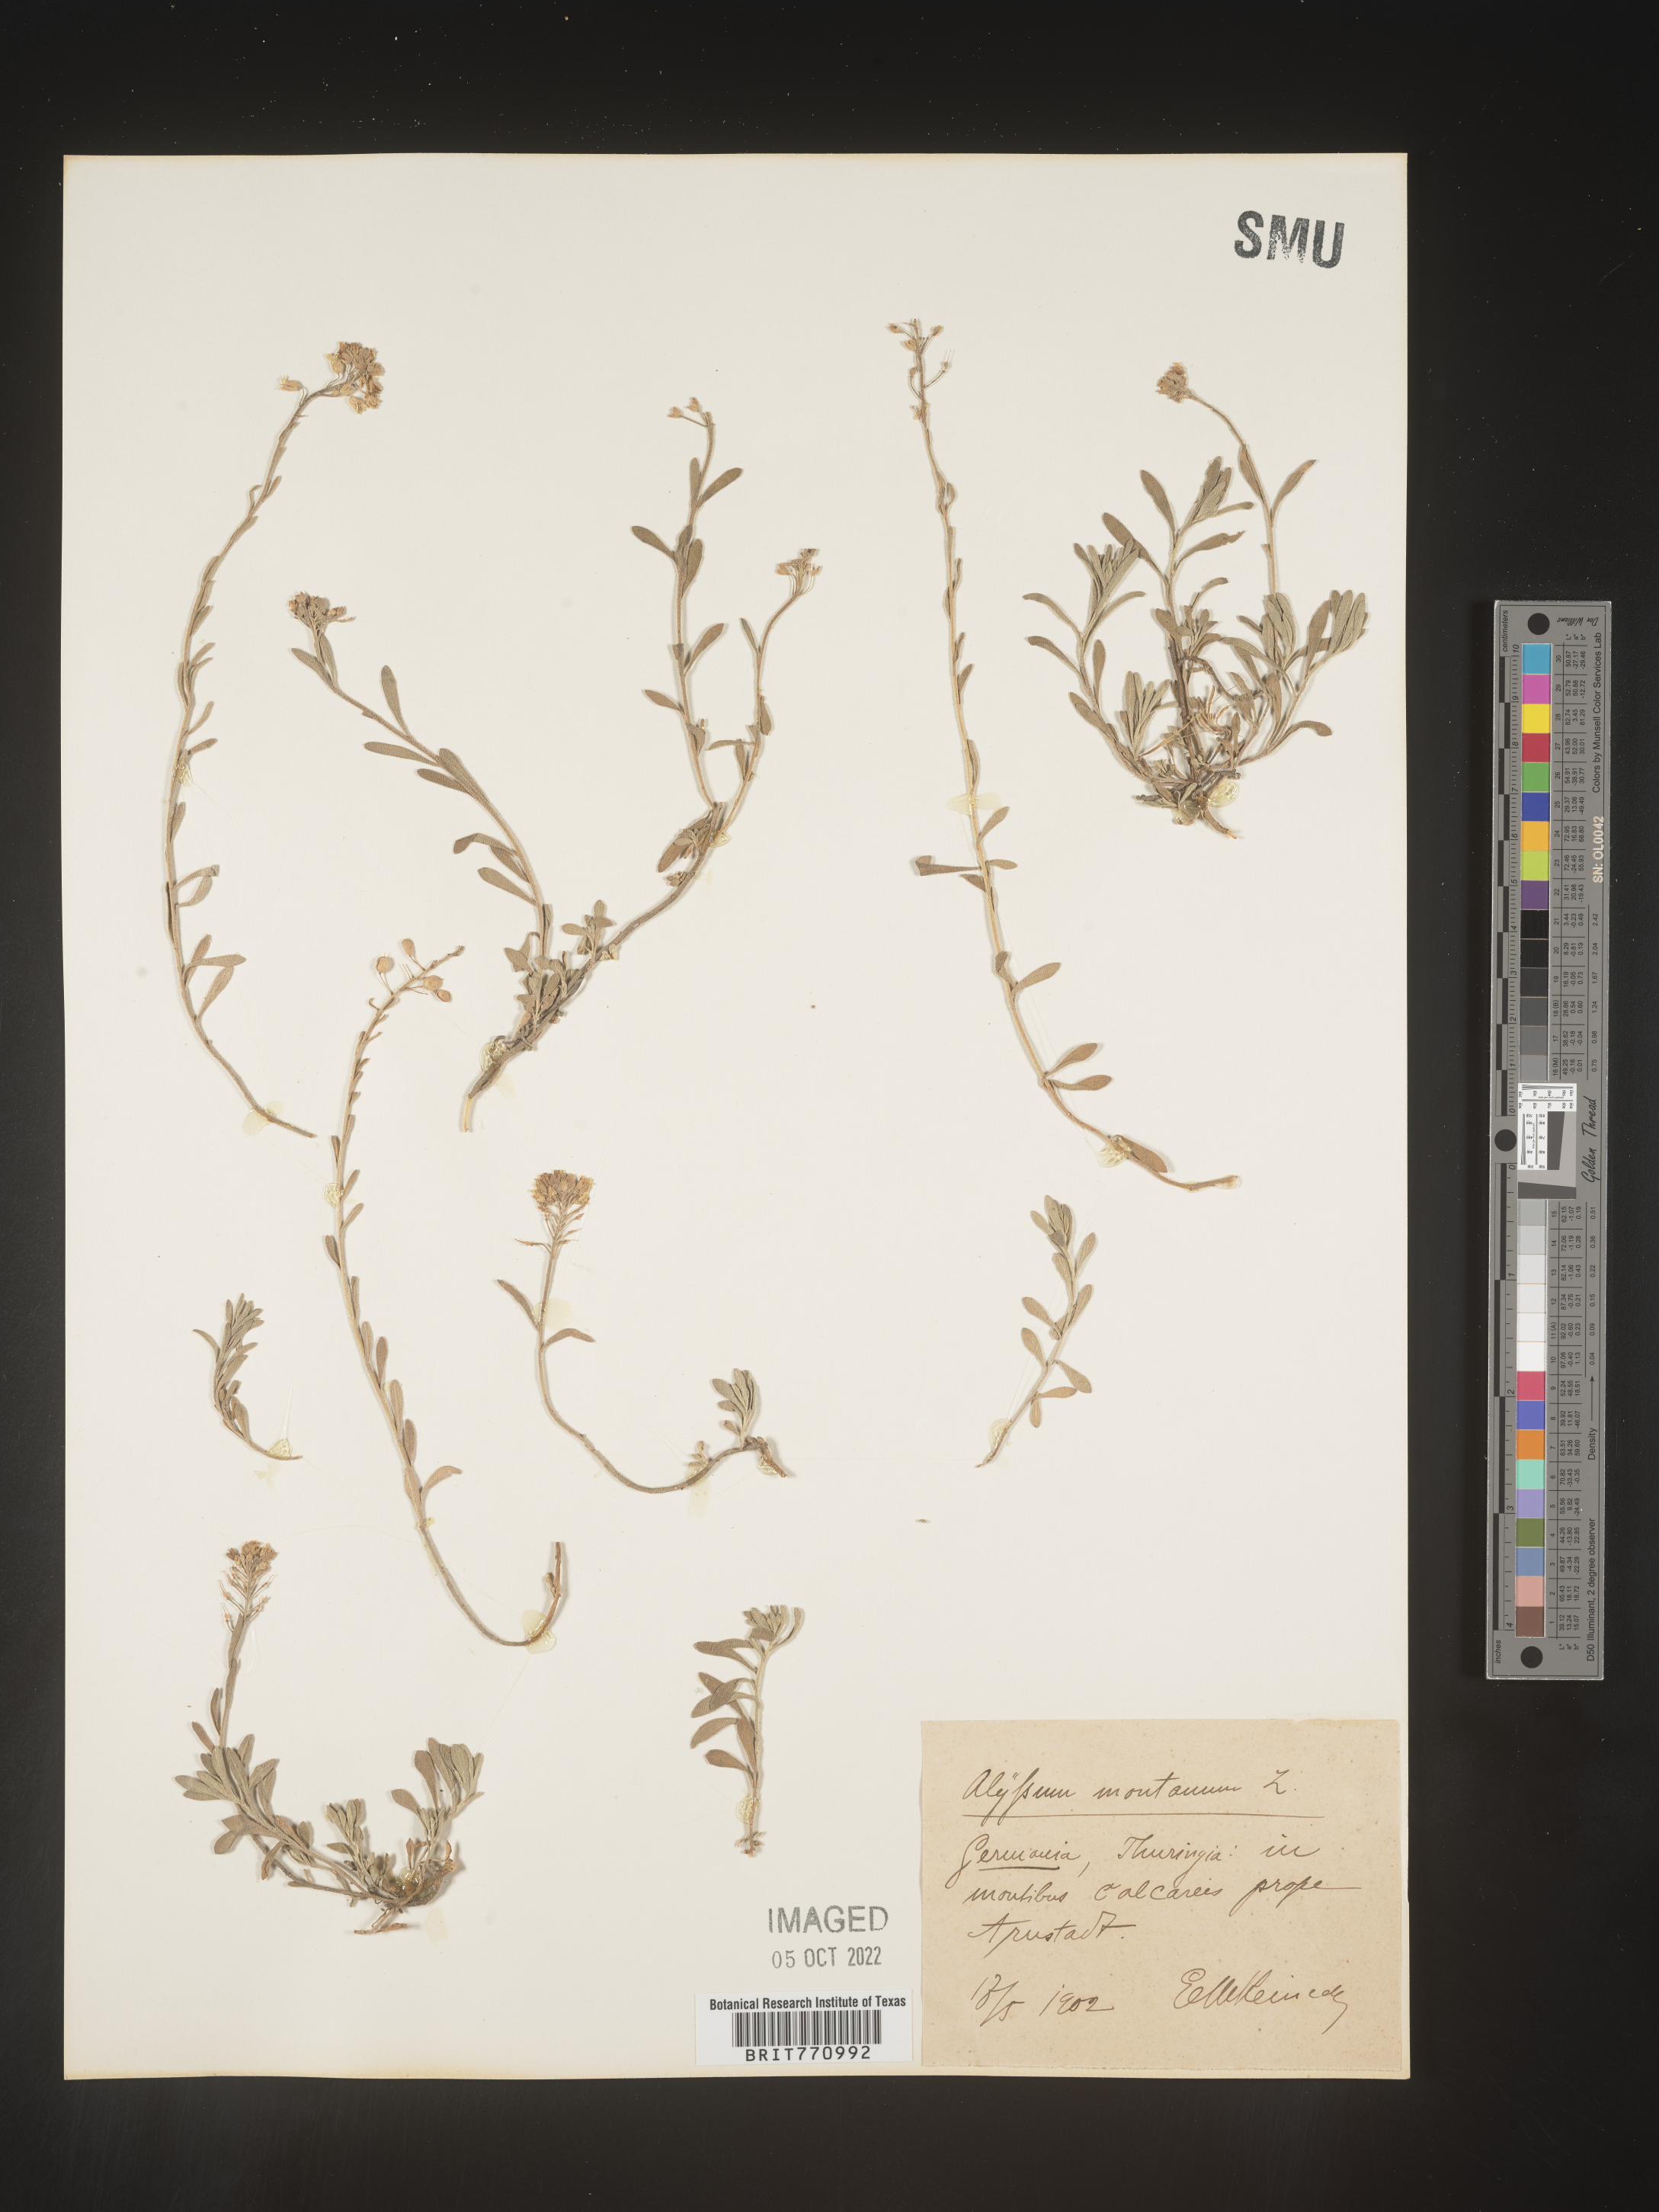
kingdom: Plantae
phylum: Tracheophyta
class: Magnoliopsida
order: Brassicales
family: Brassicaceae
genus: Alyssum
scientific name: Alyssum
